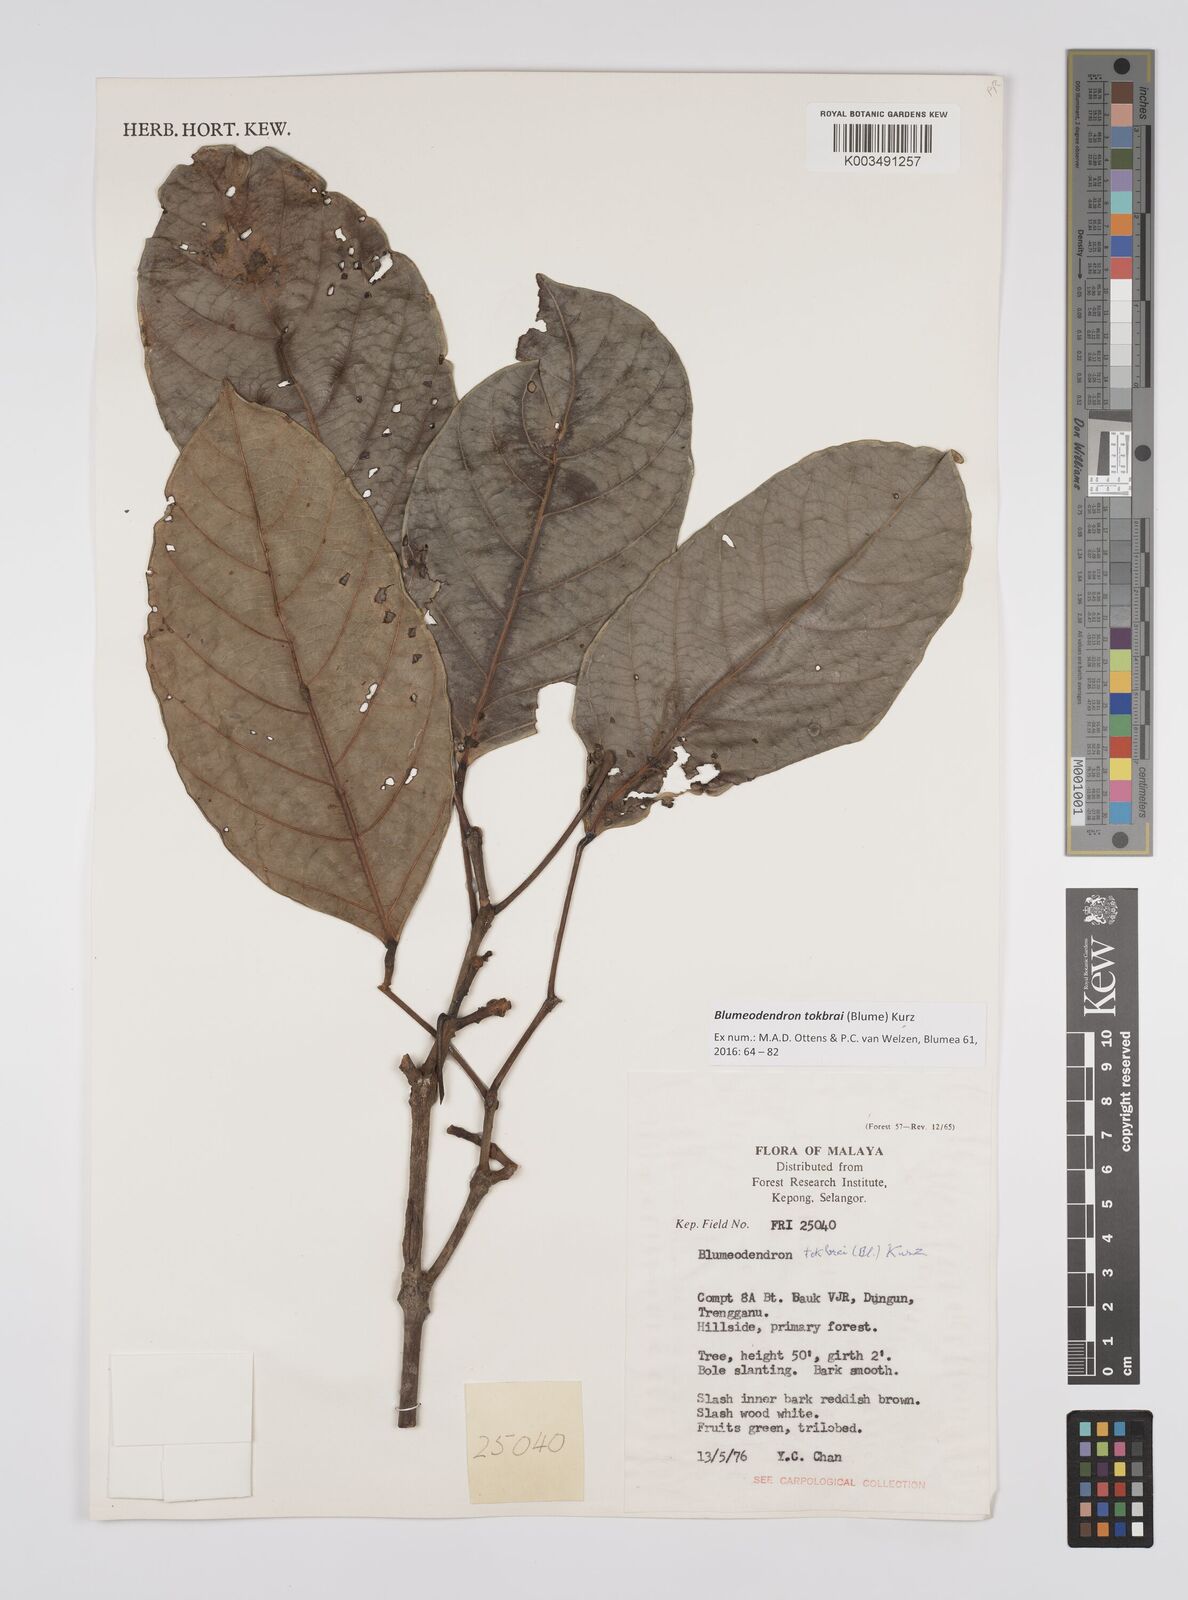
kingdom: Plantae
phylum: Tracheophyta
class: Magnoliopsida
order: Malpighiales
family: Euphorbiaceae
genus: Blumeodendron
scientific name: Blumeodendron tokbrai
